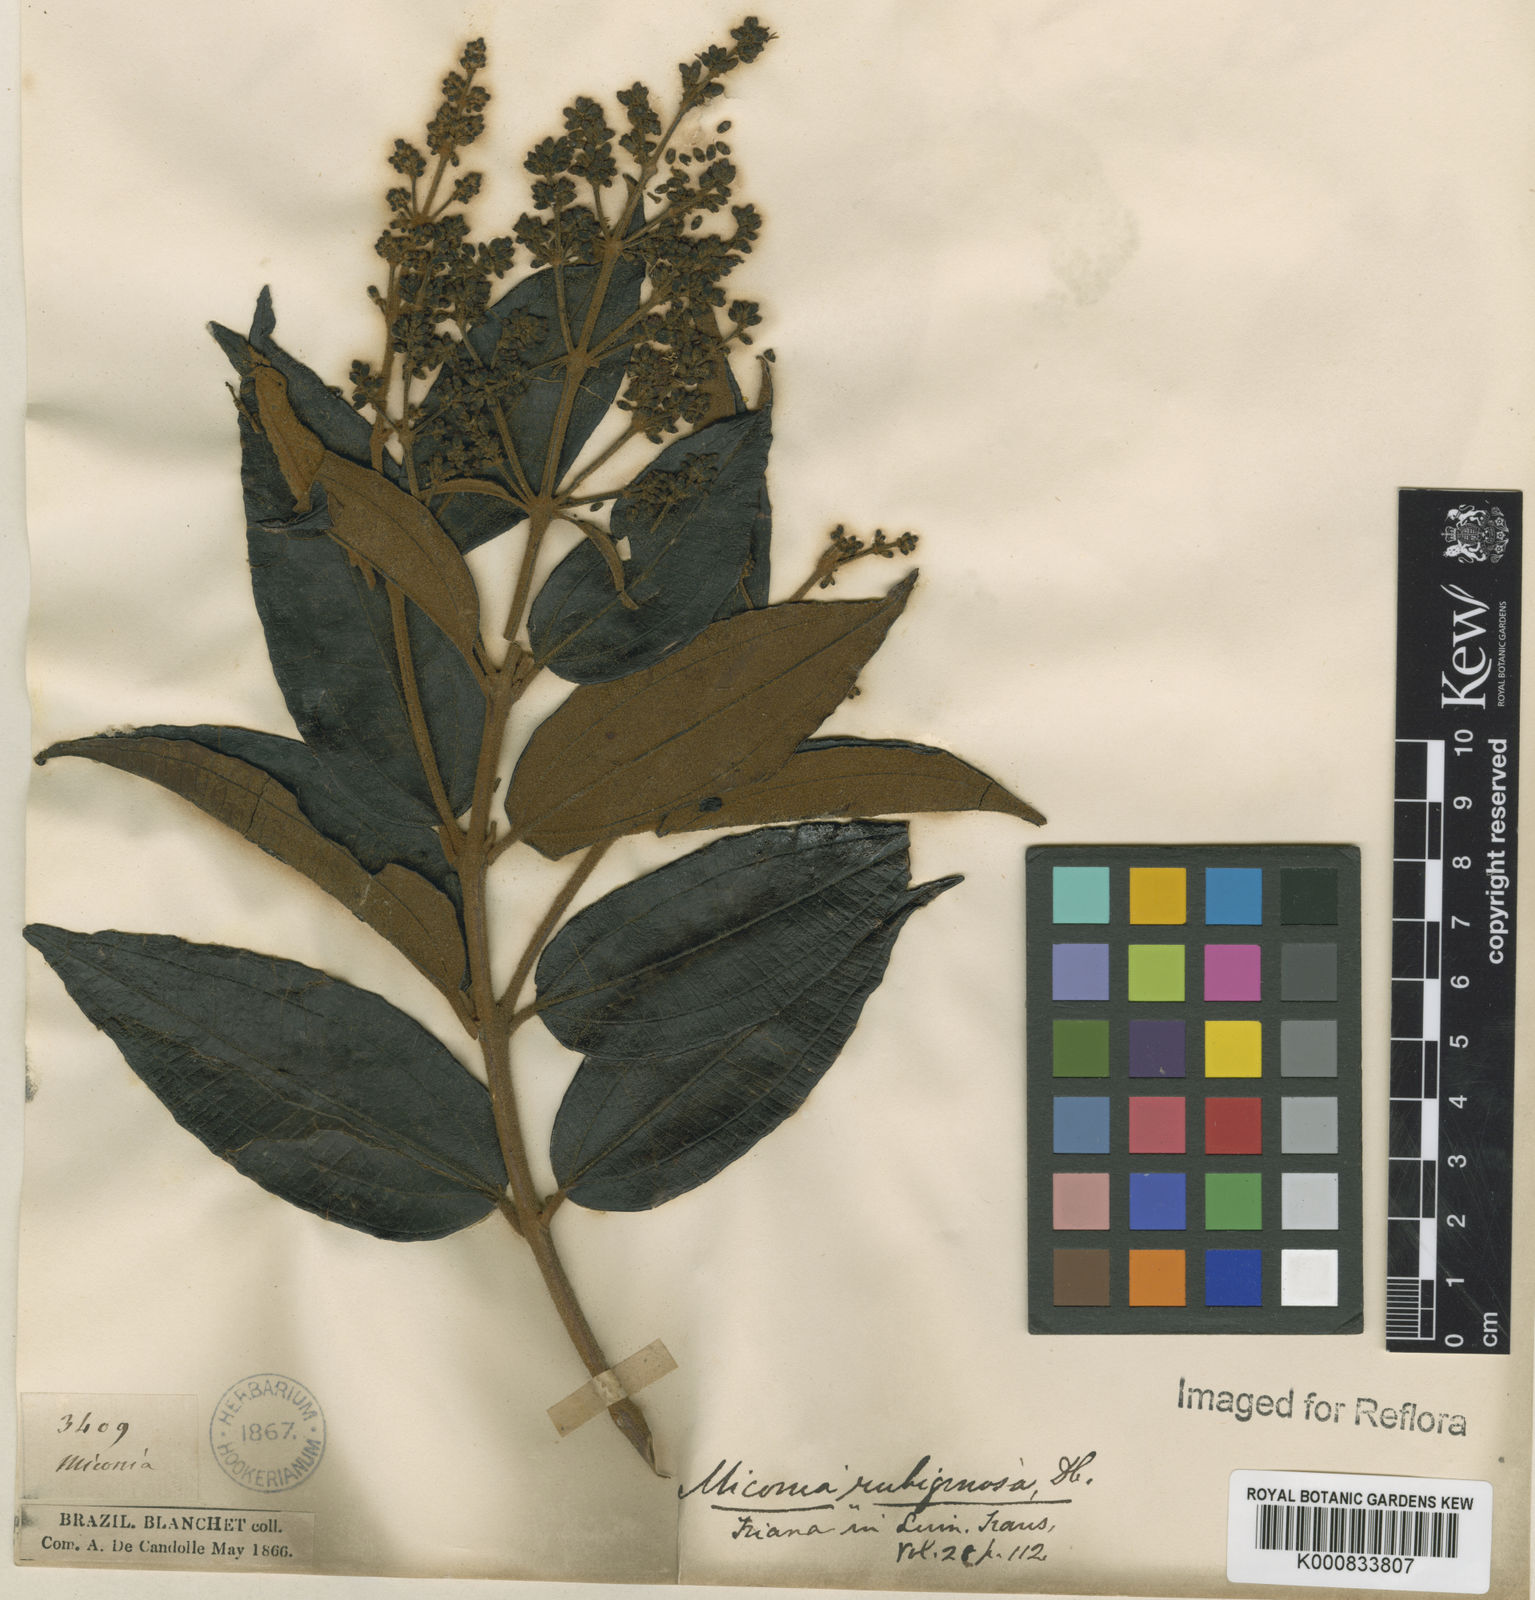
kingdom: Plantae
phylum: Tracheophyta
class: Magnoliopsida
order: Myrtales
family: Melastomataceae
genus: Miconia
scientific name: Miconia rubiginosa
